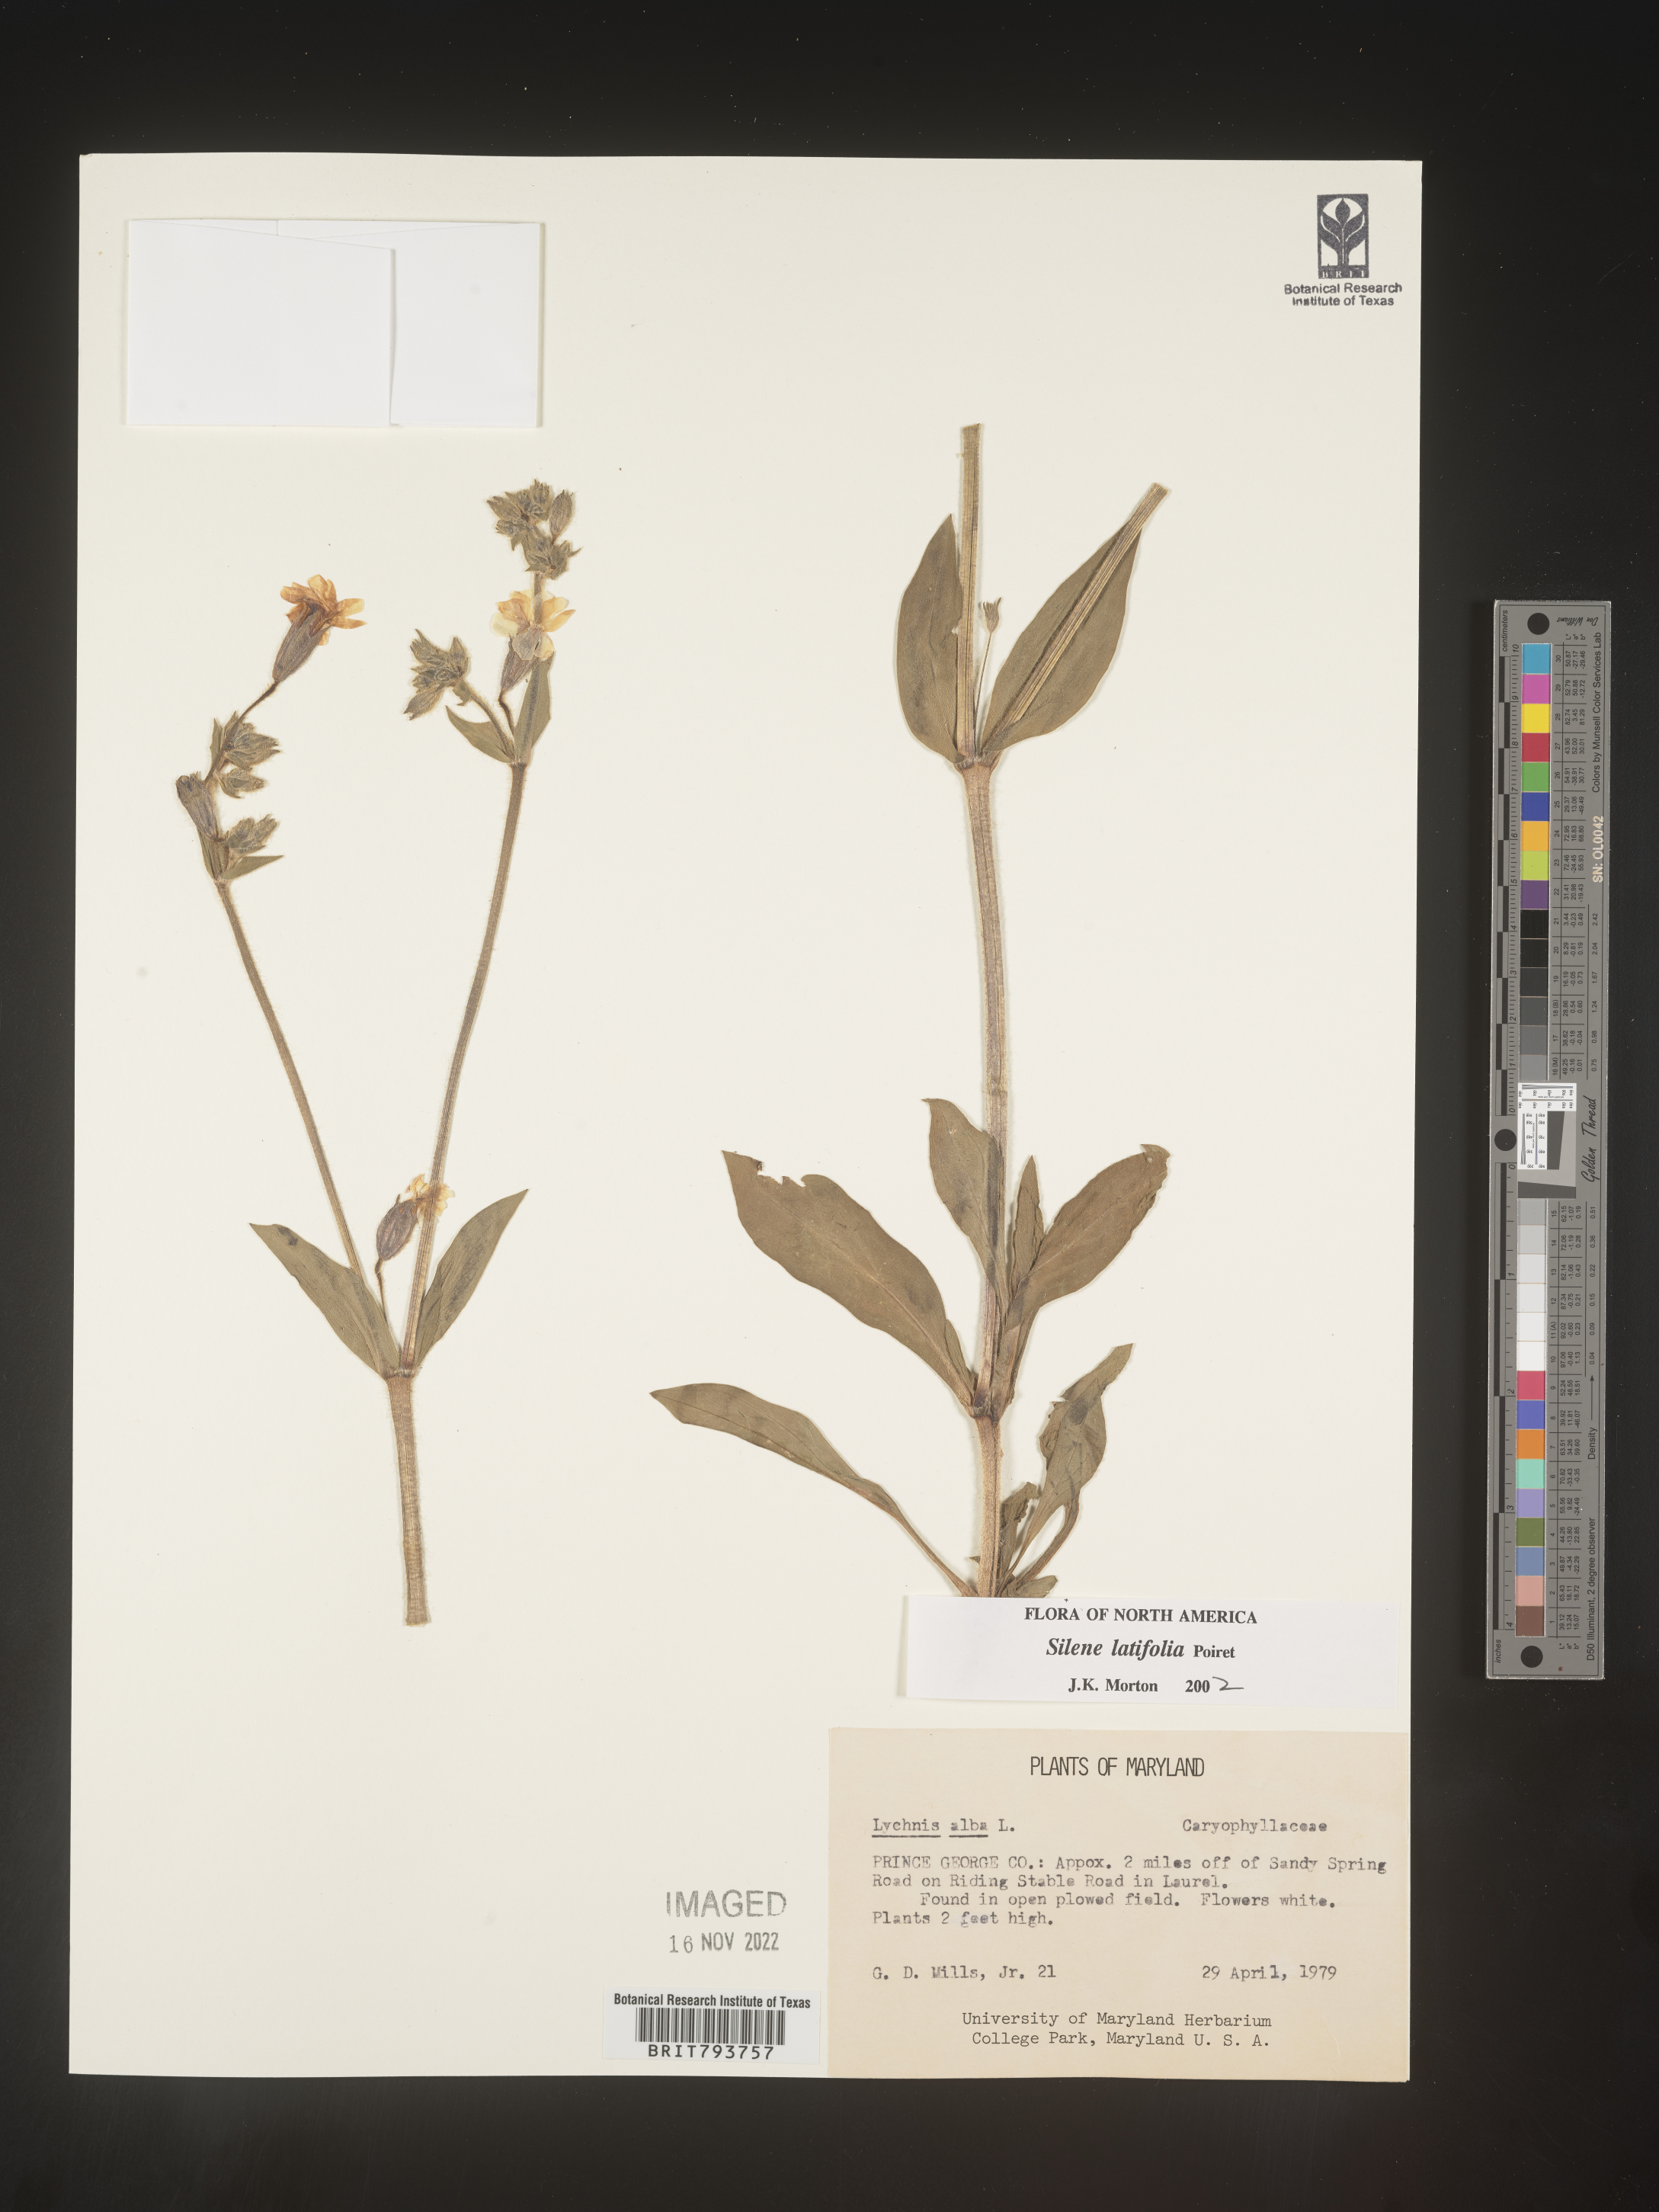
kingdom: Plantae
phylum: Tracheophyta
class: Magnoliopsida
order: Caryophyllales
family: Caryophyllaceae
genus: Silene
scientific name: Silene latifolia
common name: White campion
